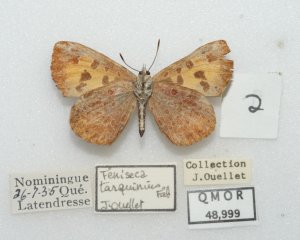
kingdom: Animalia
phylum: Arthropoda
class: Insecta
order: Lepidoptera
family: Lycaenidae
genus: Feniseca
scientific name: Feniseca tarquinius
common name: Harvester
